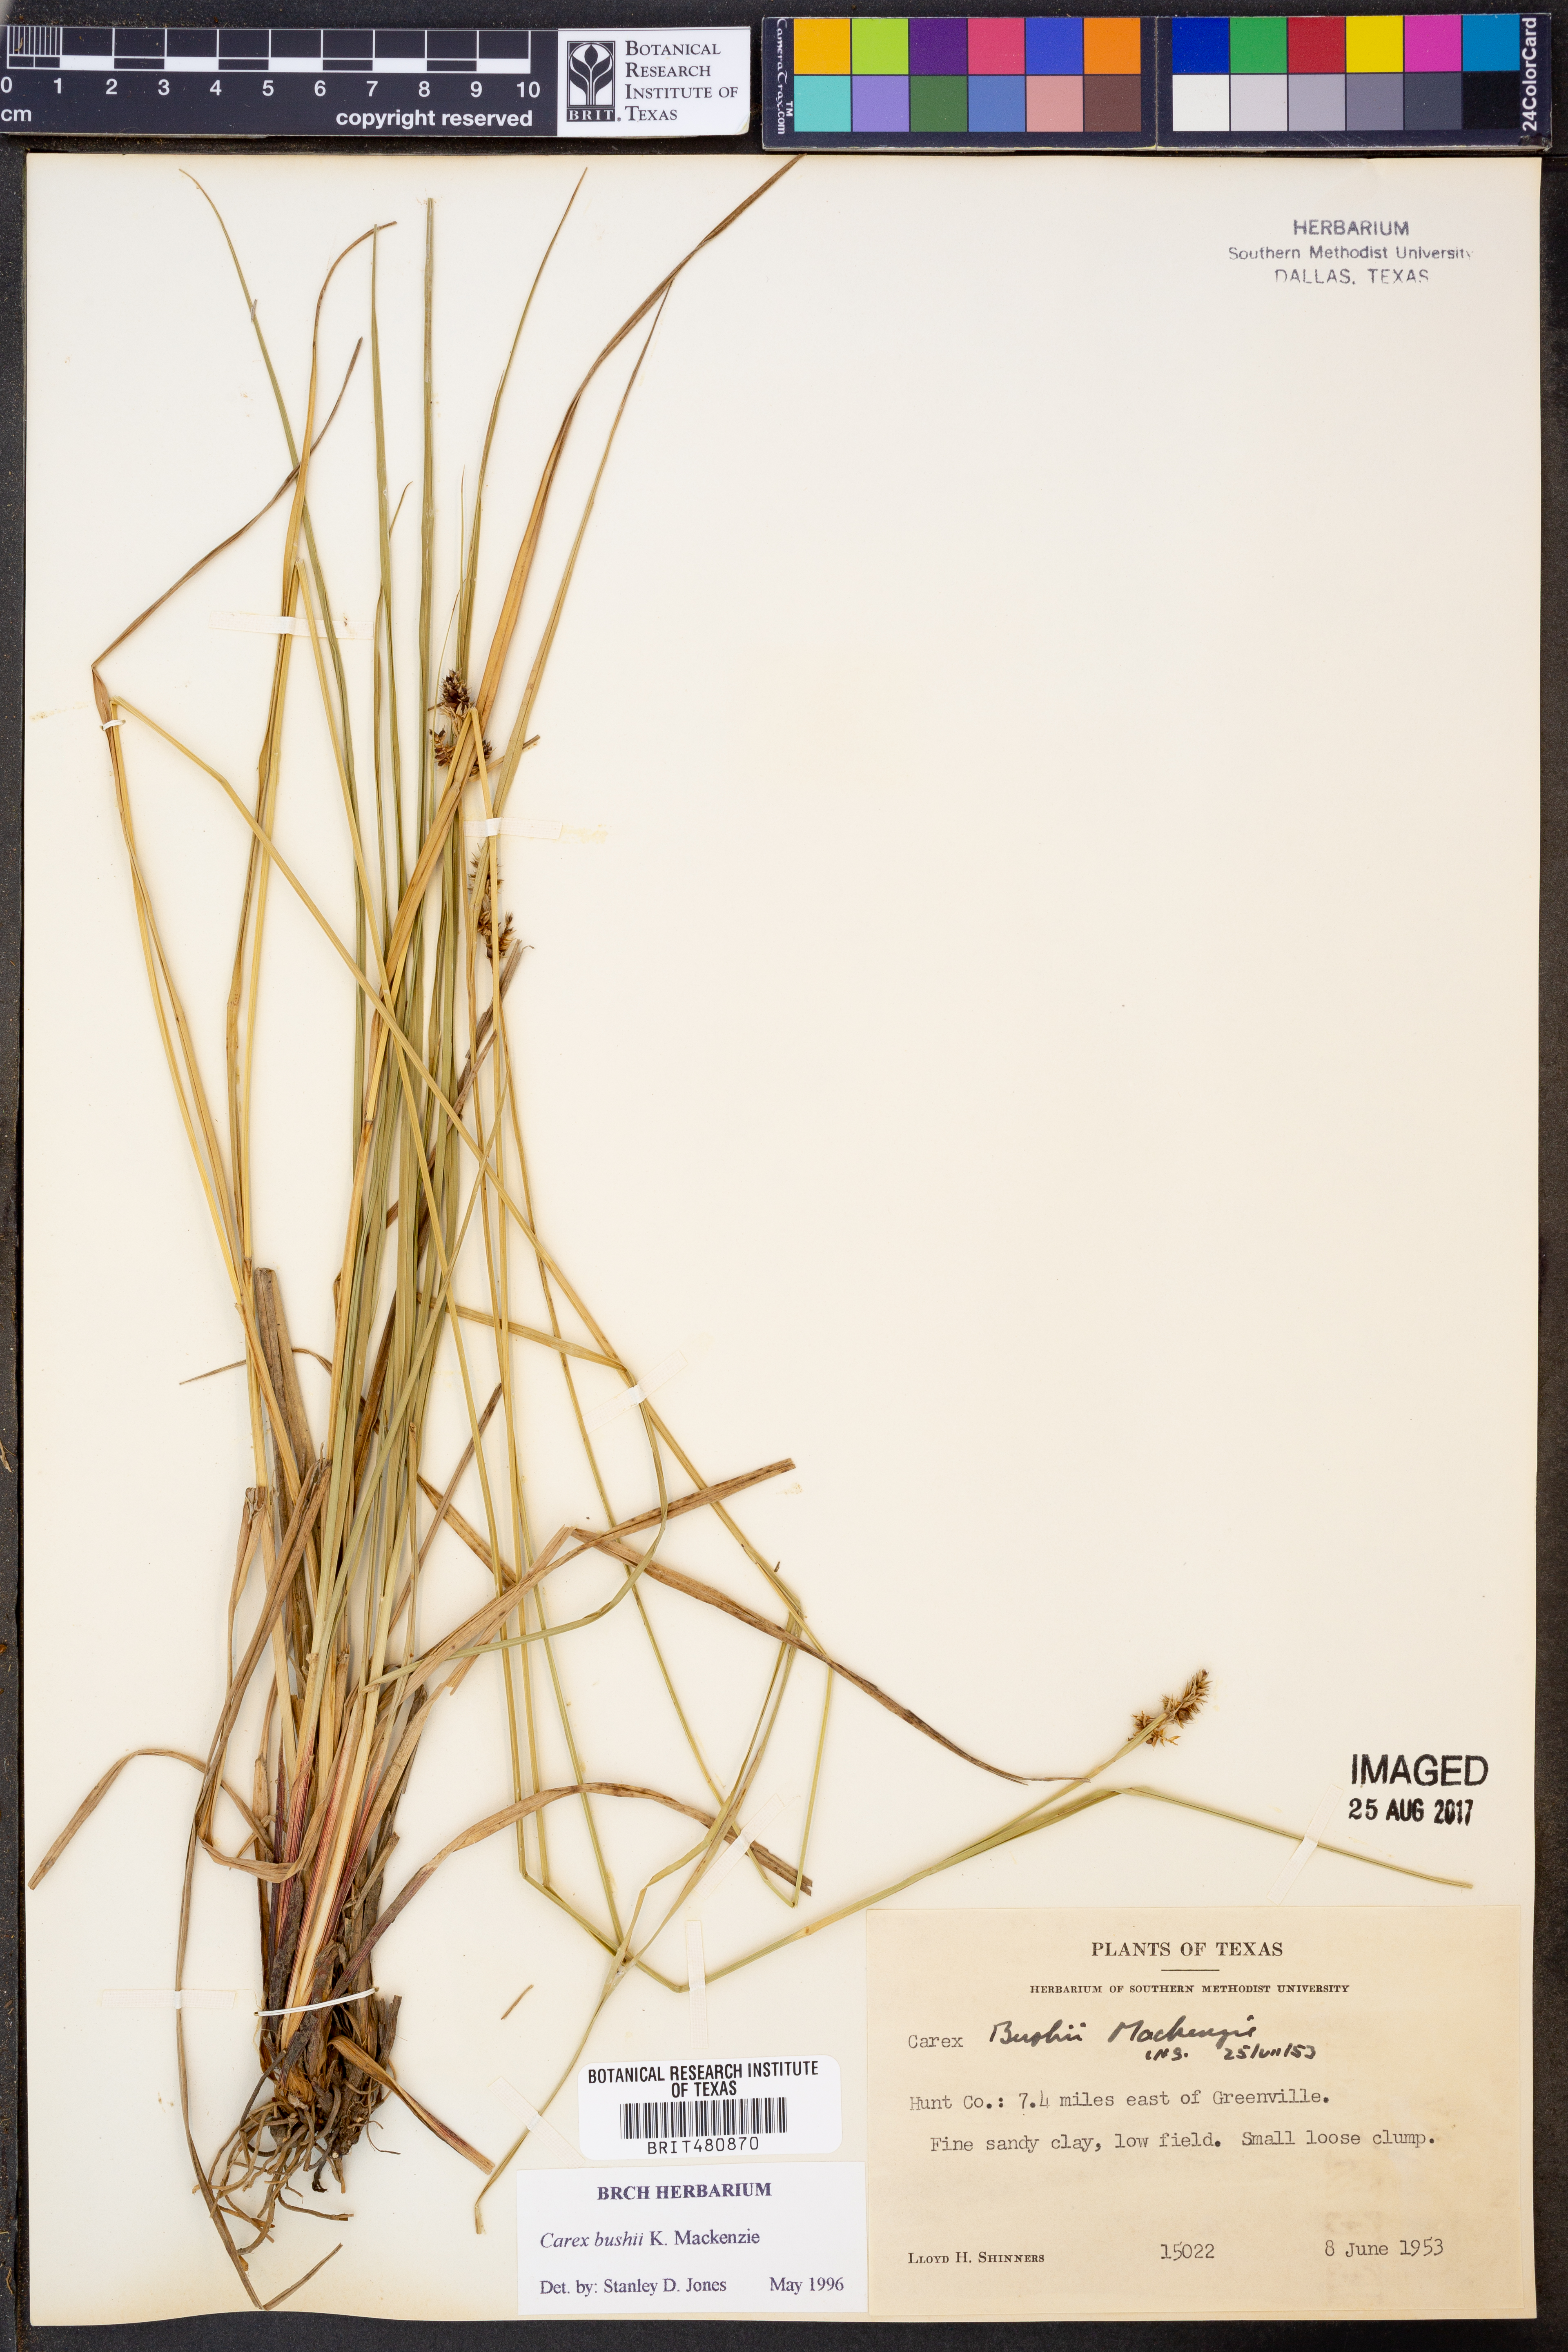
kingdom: Plantae
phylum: Tracheophyta
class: Liliopsida
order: Poales
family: Cyperaceae
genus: Carex
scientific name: Carex bushii
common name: Bush's sedge
